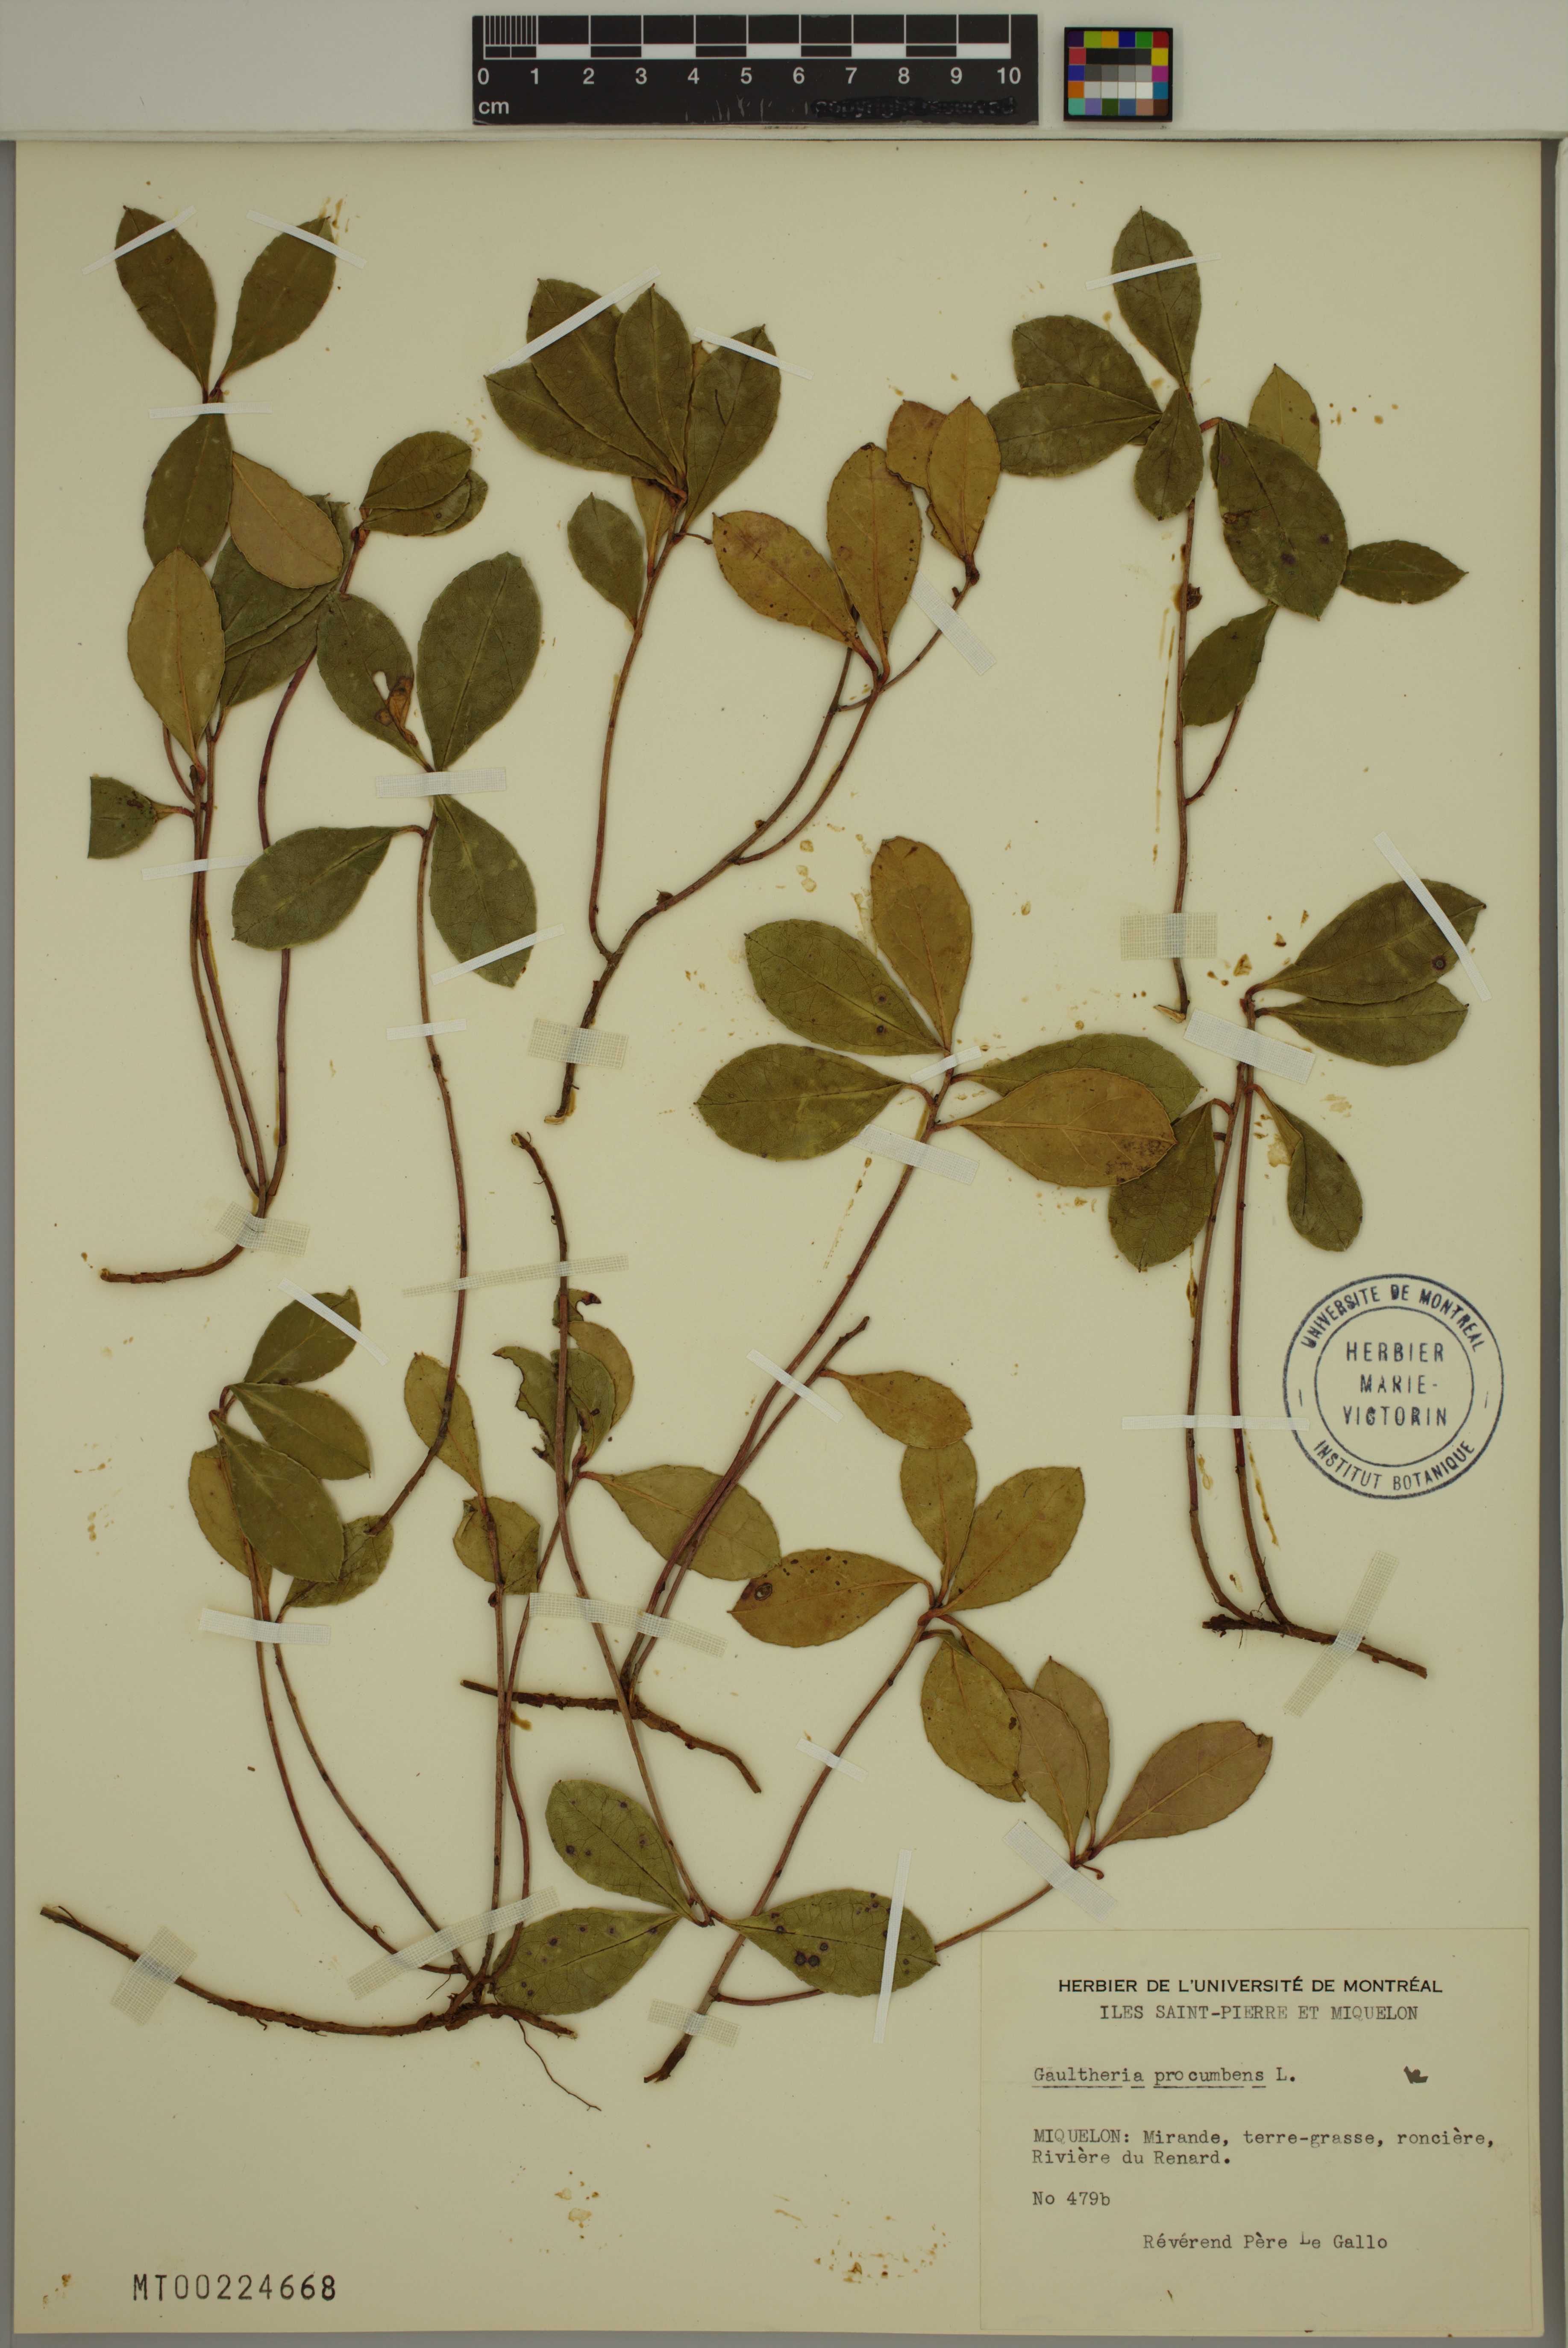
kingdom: Plantae
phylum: Tracheophyta
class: Magnoliopsida
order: Ericales
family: Ericaceae
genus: Gaultheria
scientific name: Gaultheria procumbens
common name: Checkerberry
